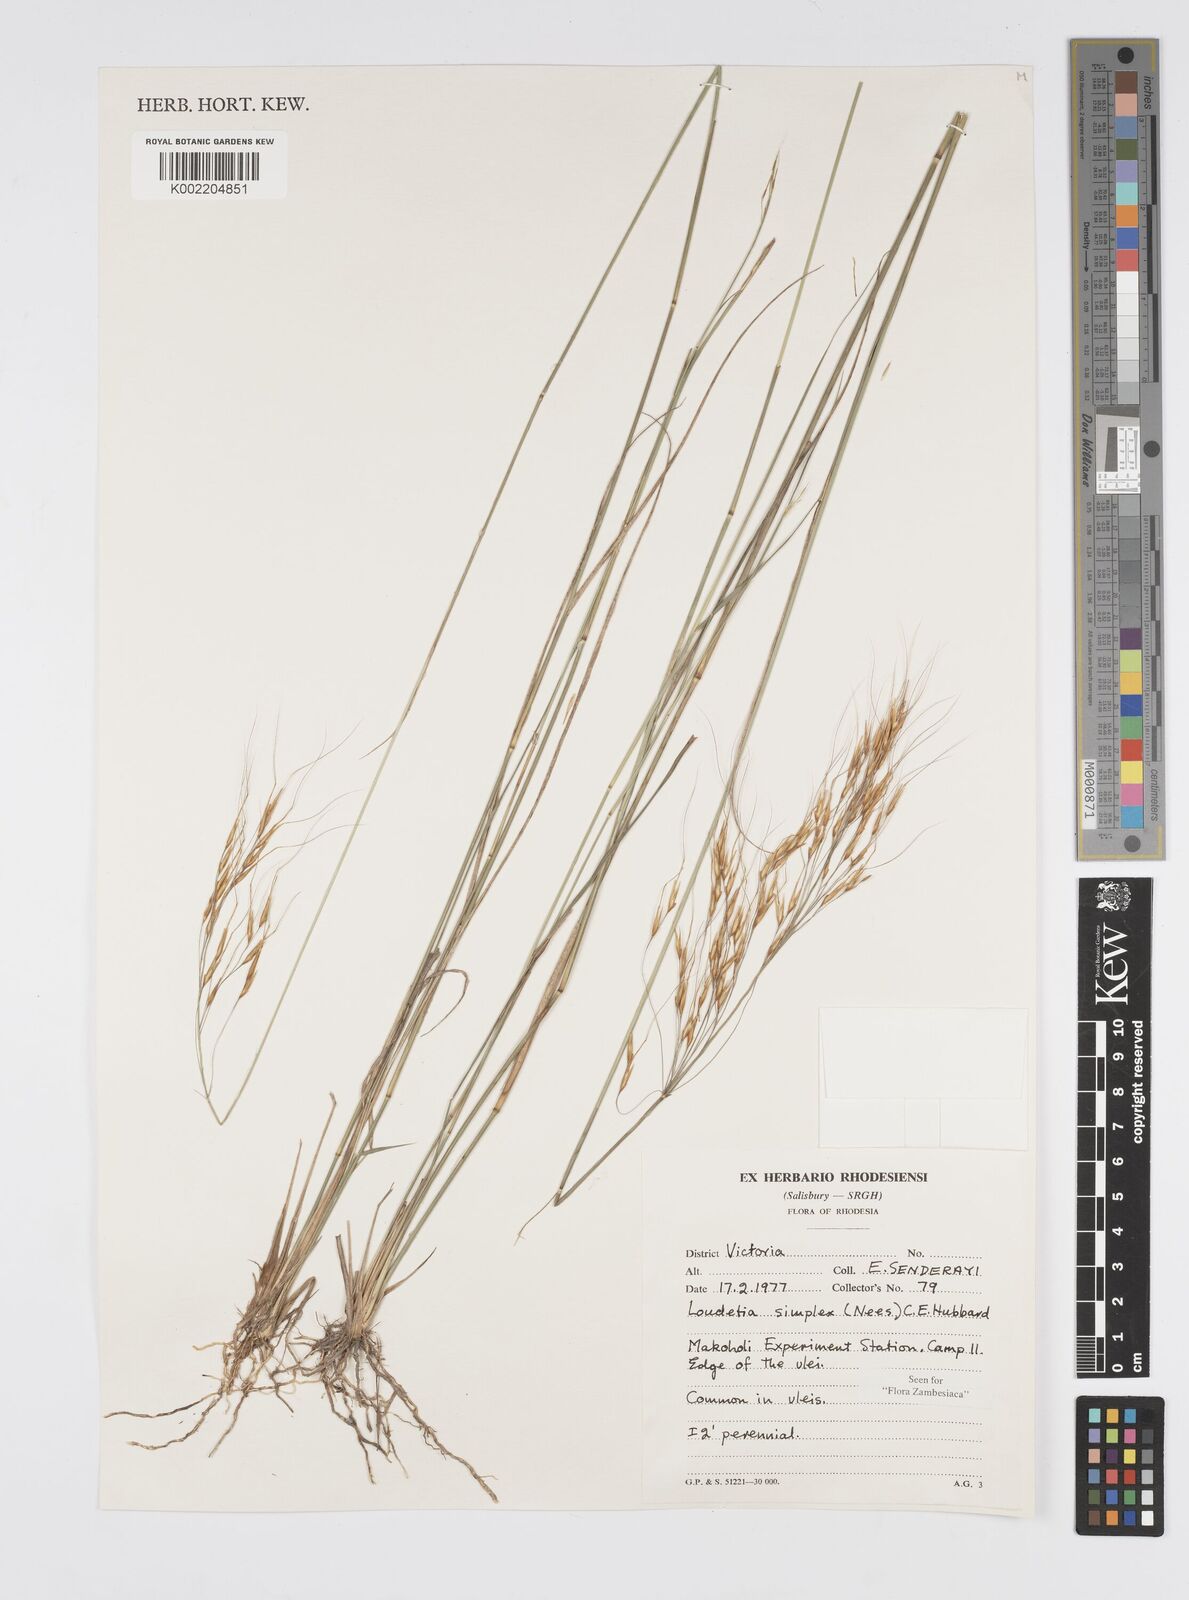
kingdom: Plantae
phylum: Tracheophyta
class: Liliopsida
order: Poales
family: Poaceae
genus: Loudetia
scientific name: Loudetia simplex
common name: Common russet grass
